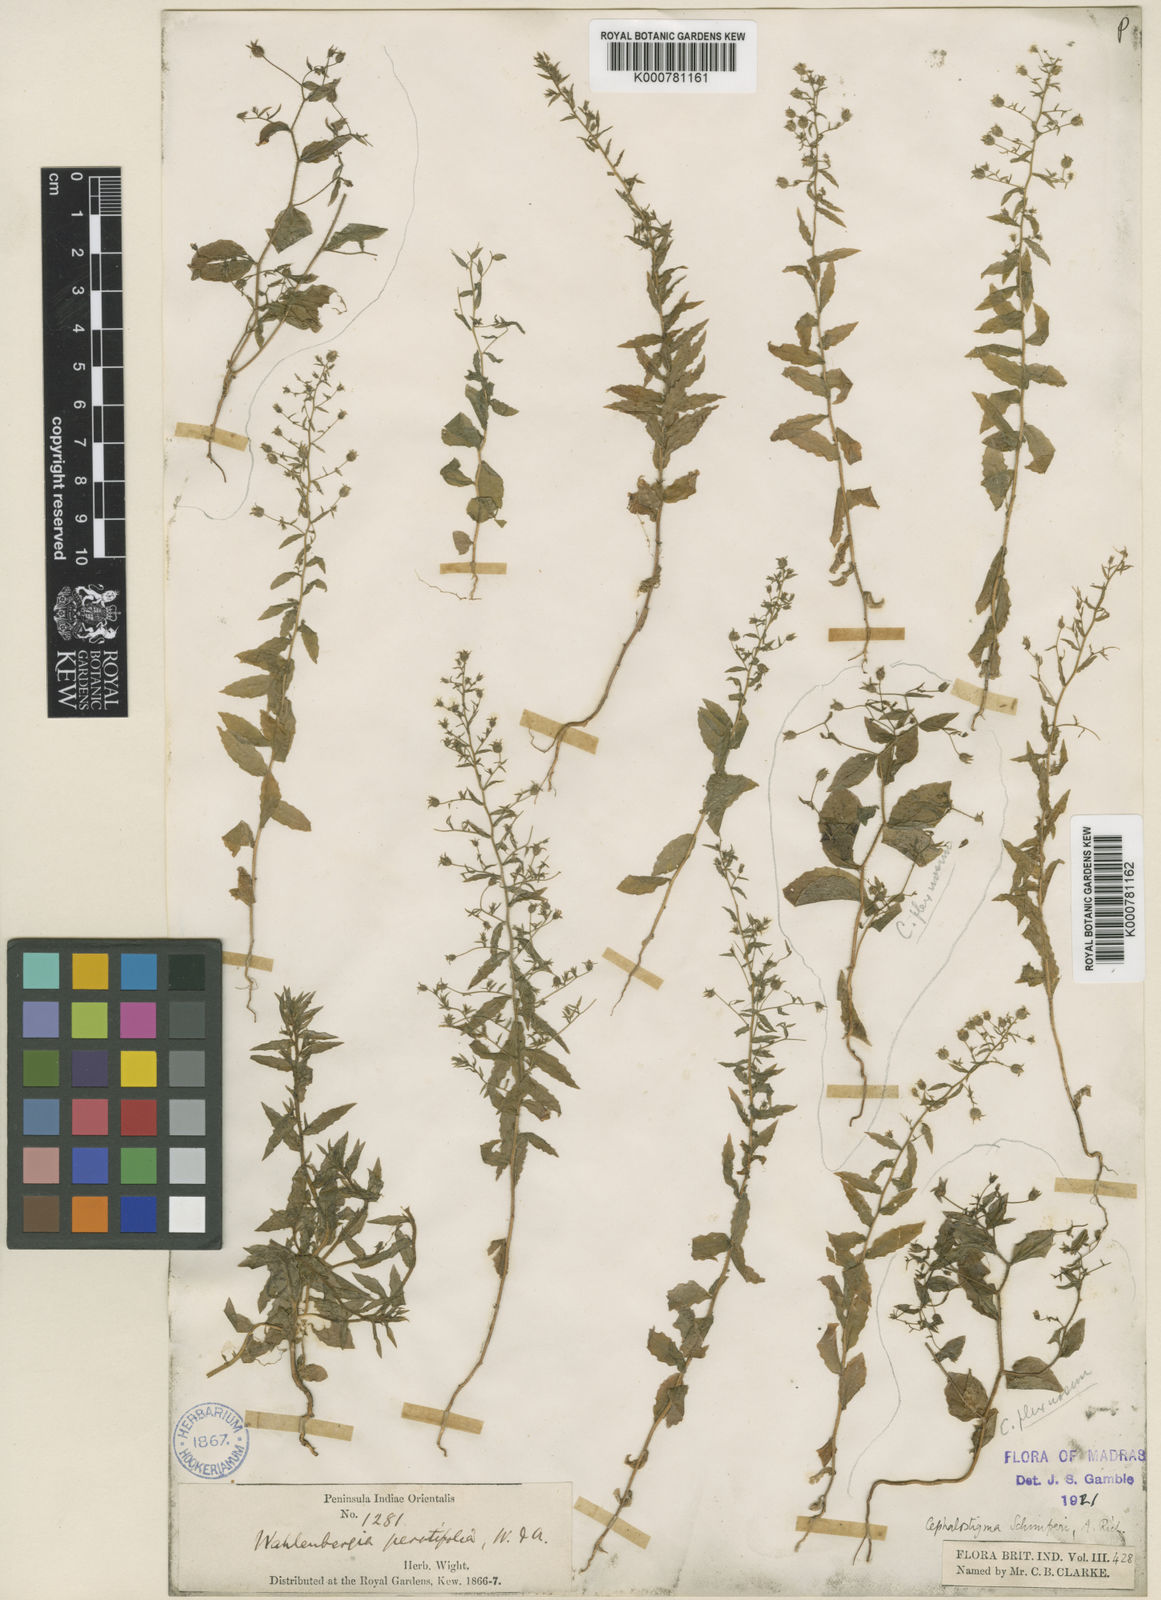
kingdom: Plantae
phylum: Tracheophyta
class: Magnoliopsida
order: Asterales
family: Campanulaceae
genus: Wahlenbergia
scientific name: Wahlenbergia erecta
